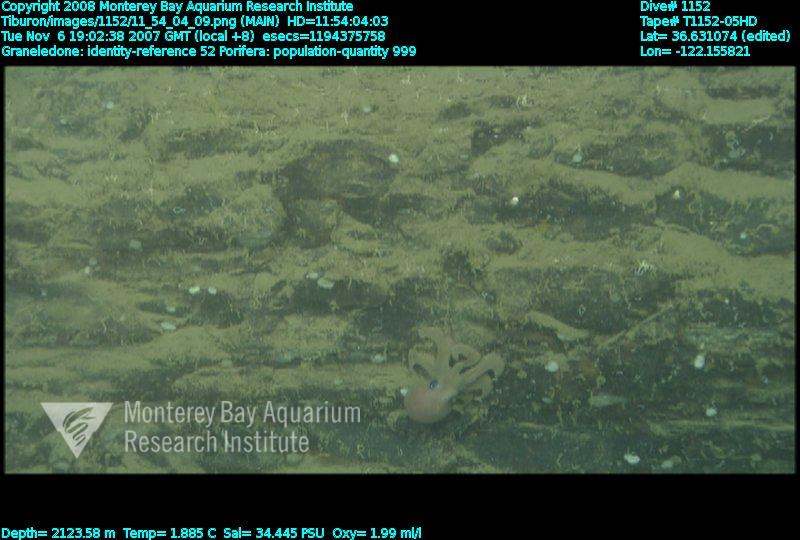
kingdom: Animalia
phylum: Porifera
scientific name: Porifera
